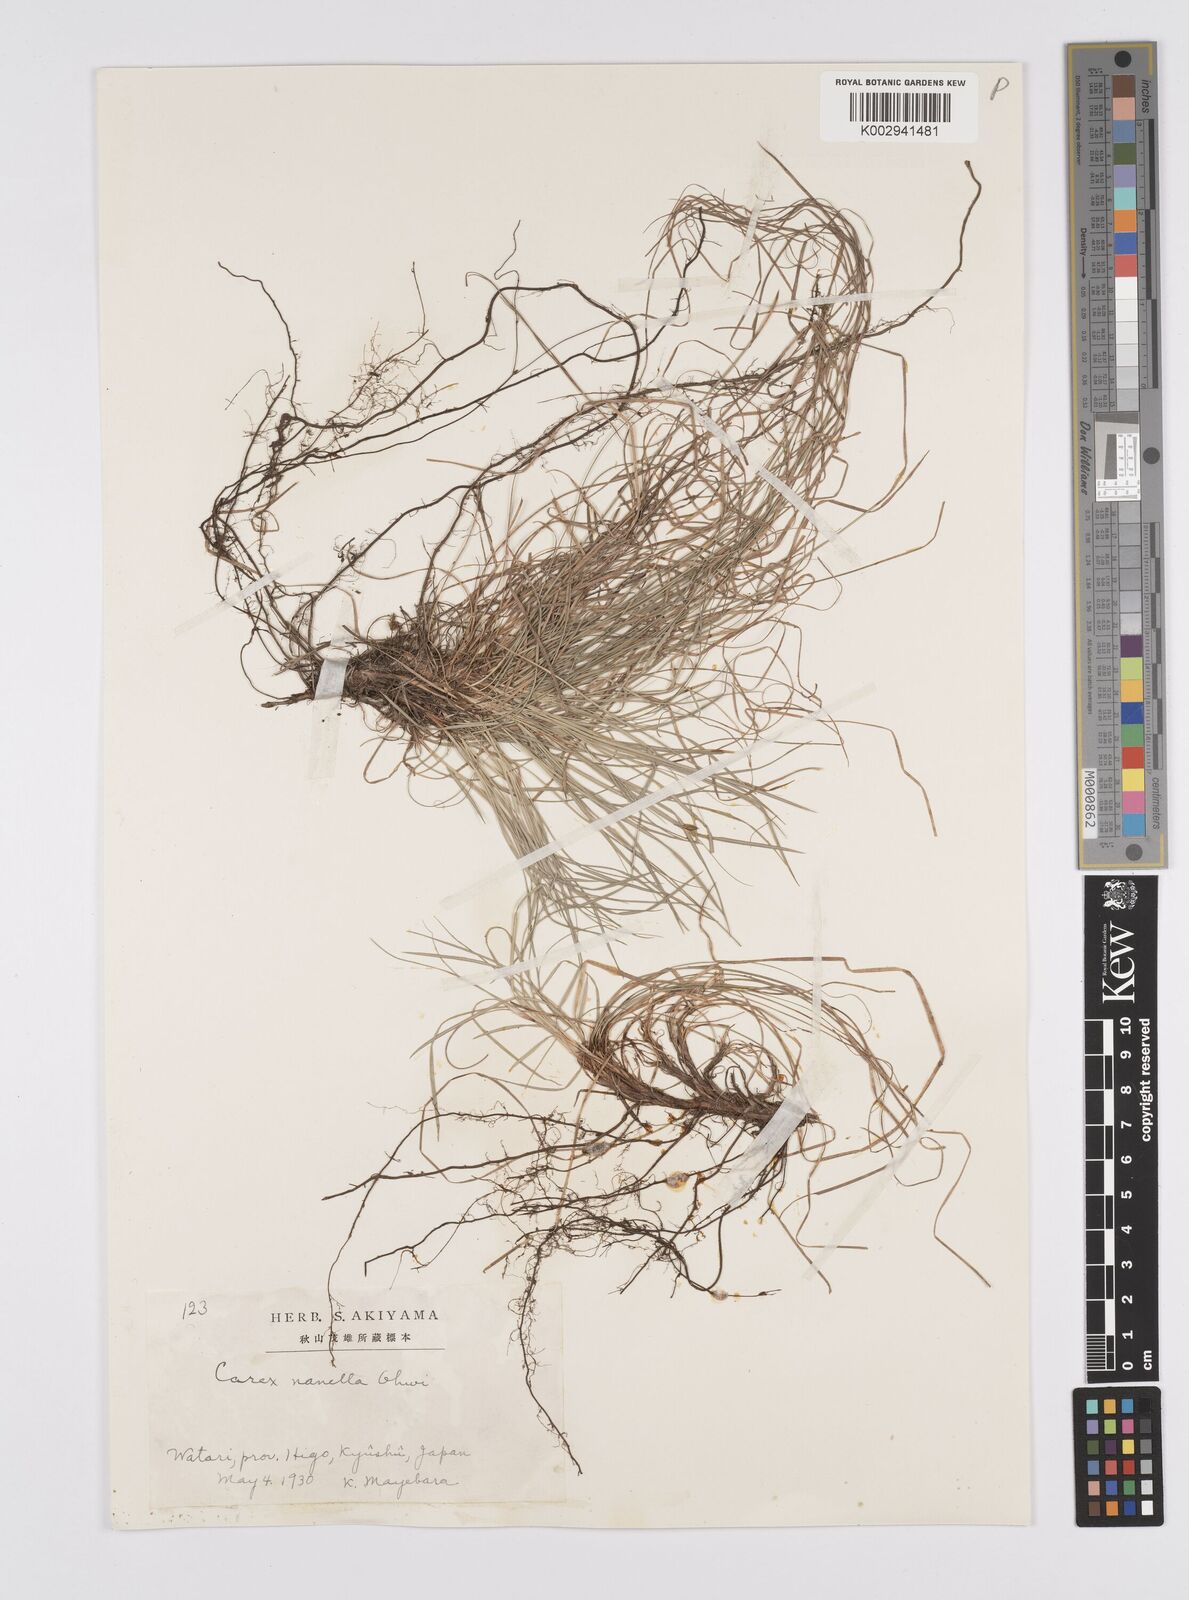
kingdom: Plantae
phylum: Tracheophyta
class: Liliopsida
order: Poales
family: Cyperaceae
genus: Carex
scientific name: Carex humilis
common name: Dwarf sedge
